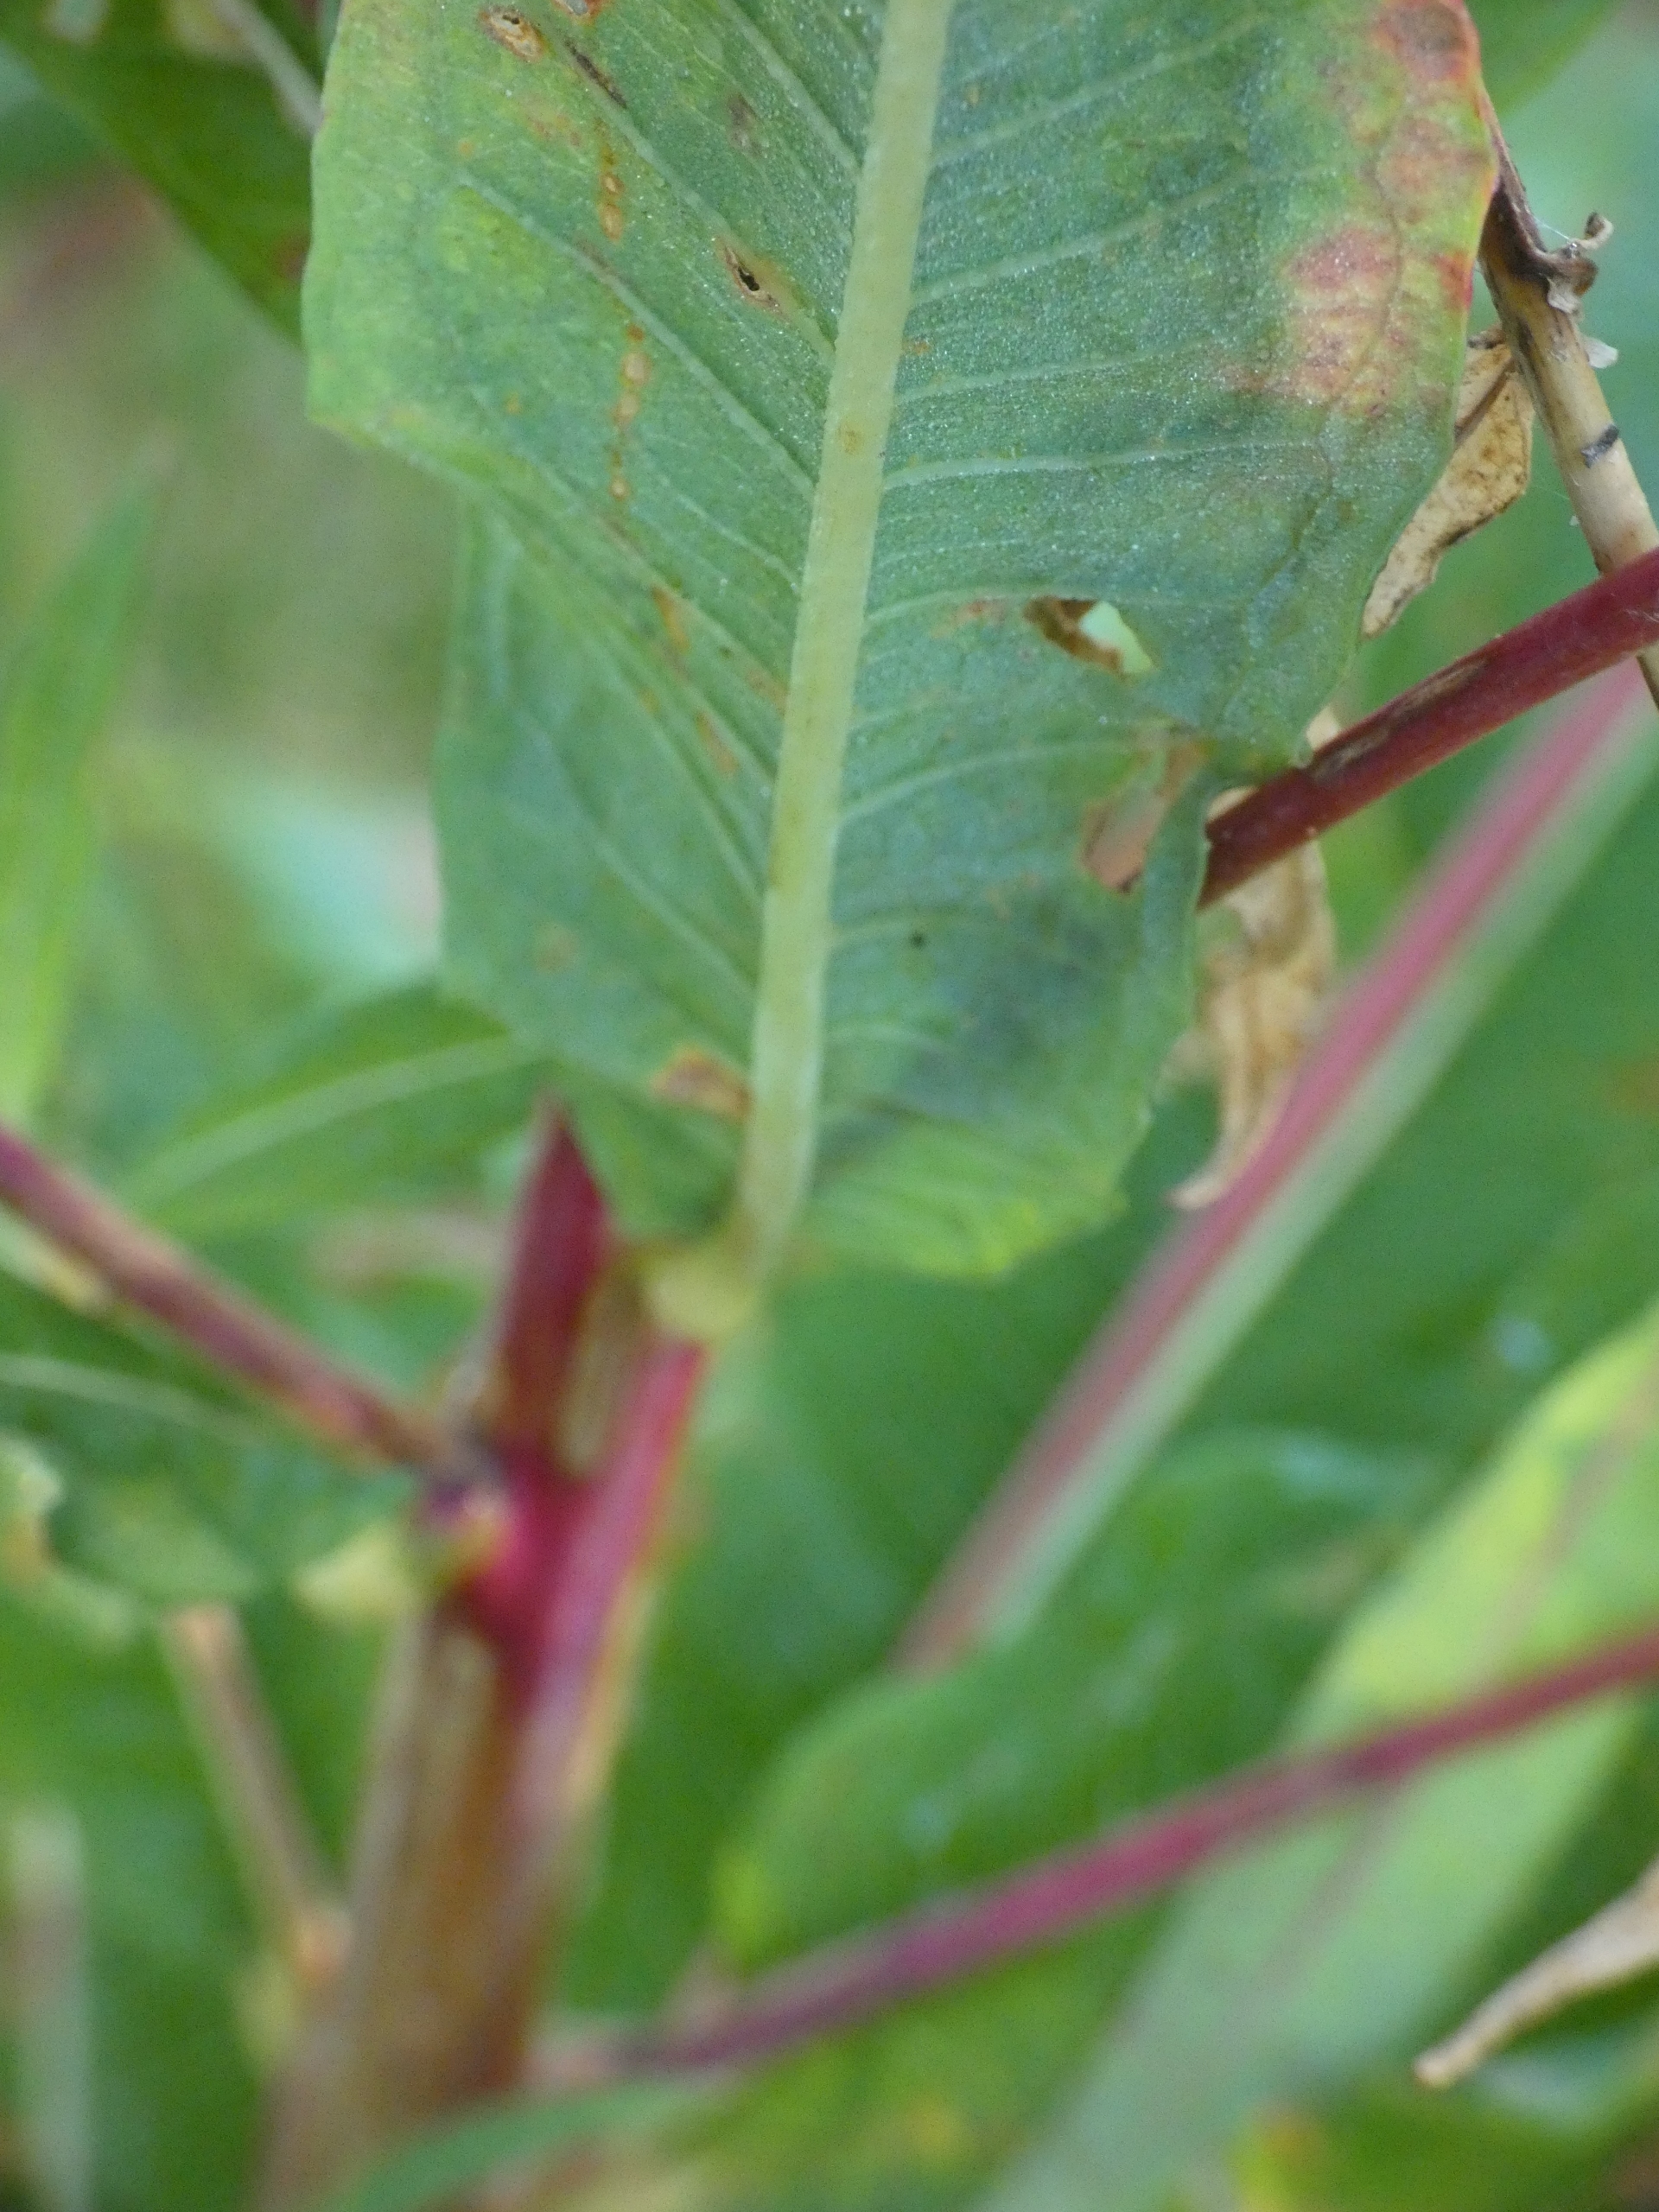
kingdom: Plantae
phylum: Tracheophyta
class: Magnoliopsida
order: Myrtales
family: Onagraceae
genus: Chamaenerion
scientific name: Chamaenerion angustifolium
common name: Gederams
